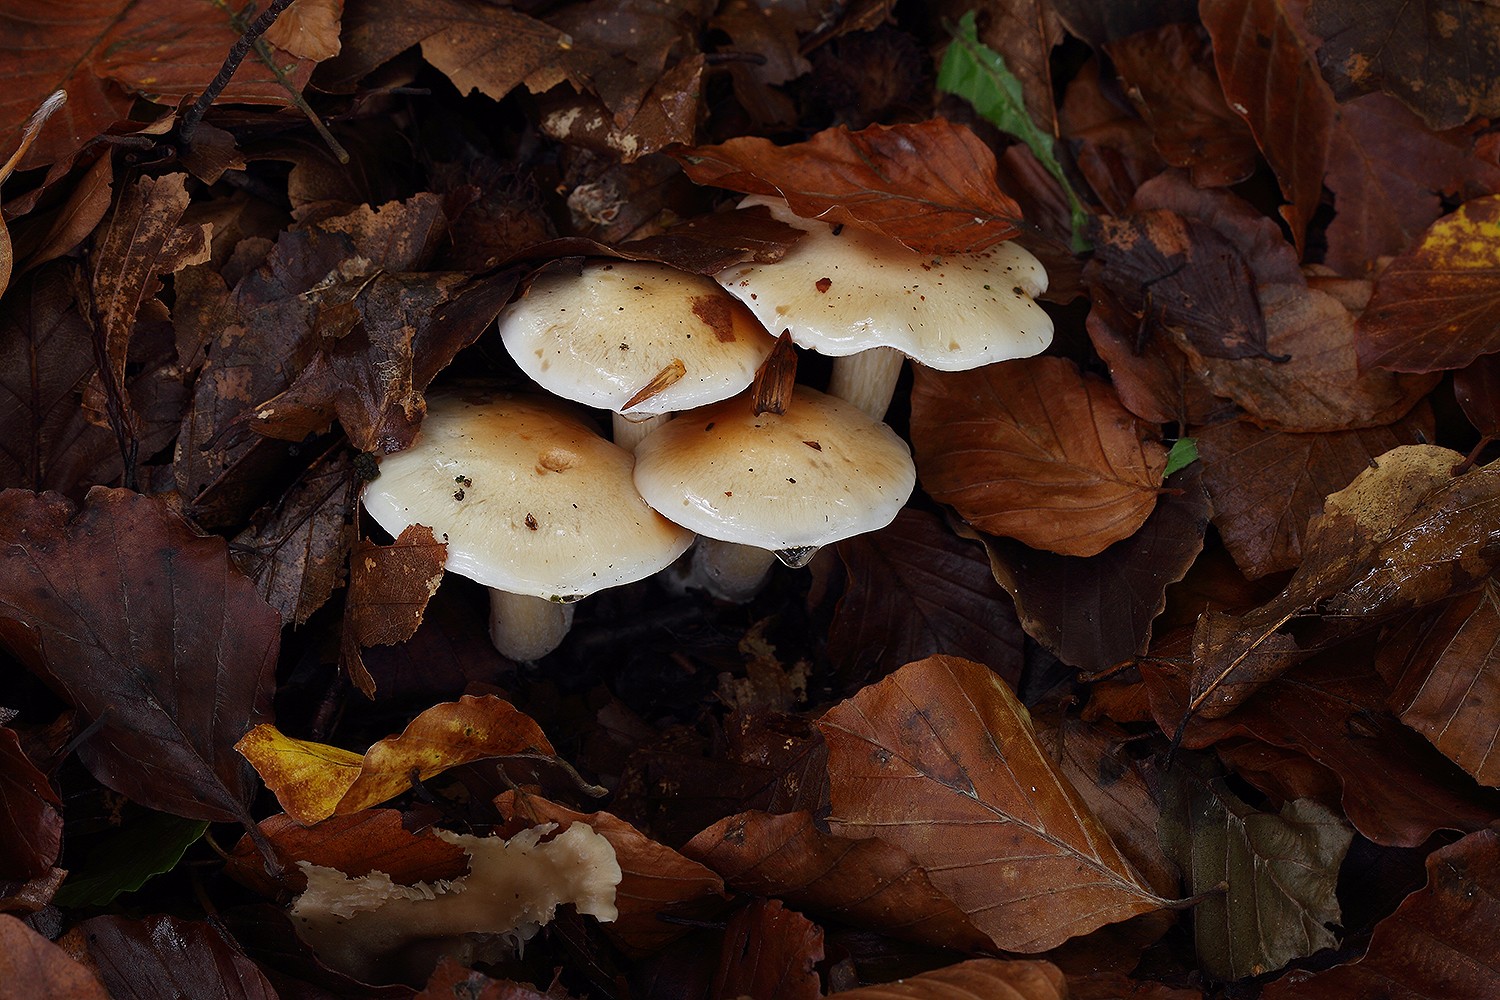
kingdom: Fungi
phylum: Basidiomycota
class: Agaricomycetes
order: Agaricales
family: Cortinariaceae
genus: Thaxterogaster
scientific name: Thaxterogaster barbatus
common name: elfenbens-slørhat
